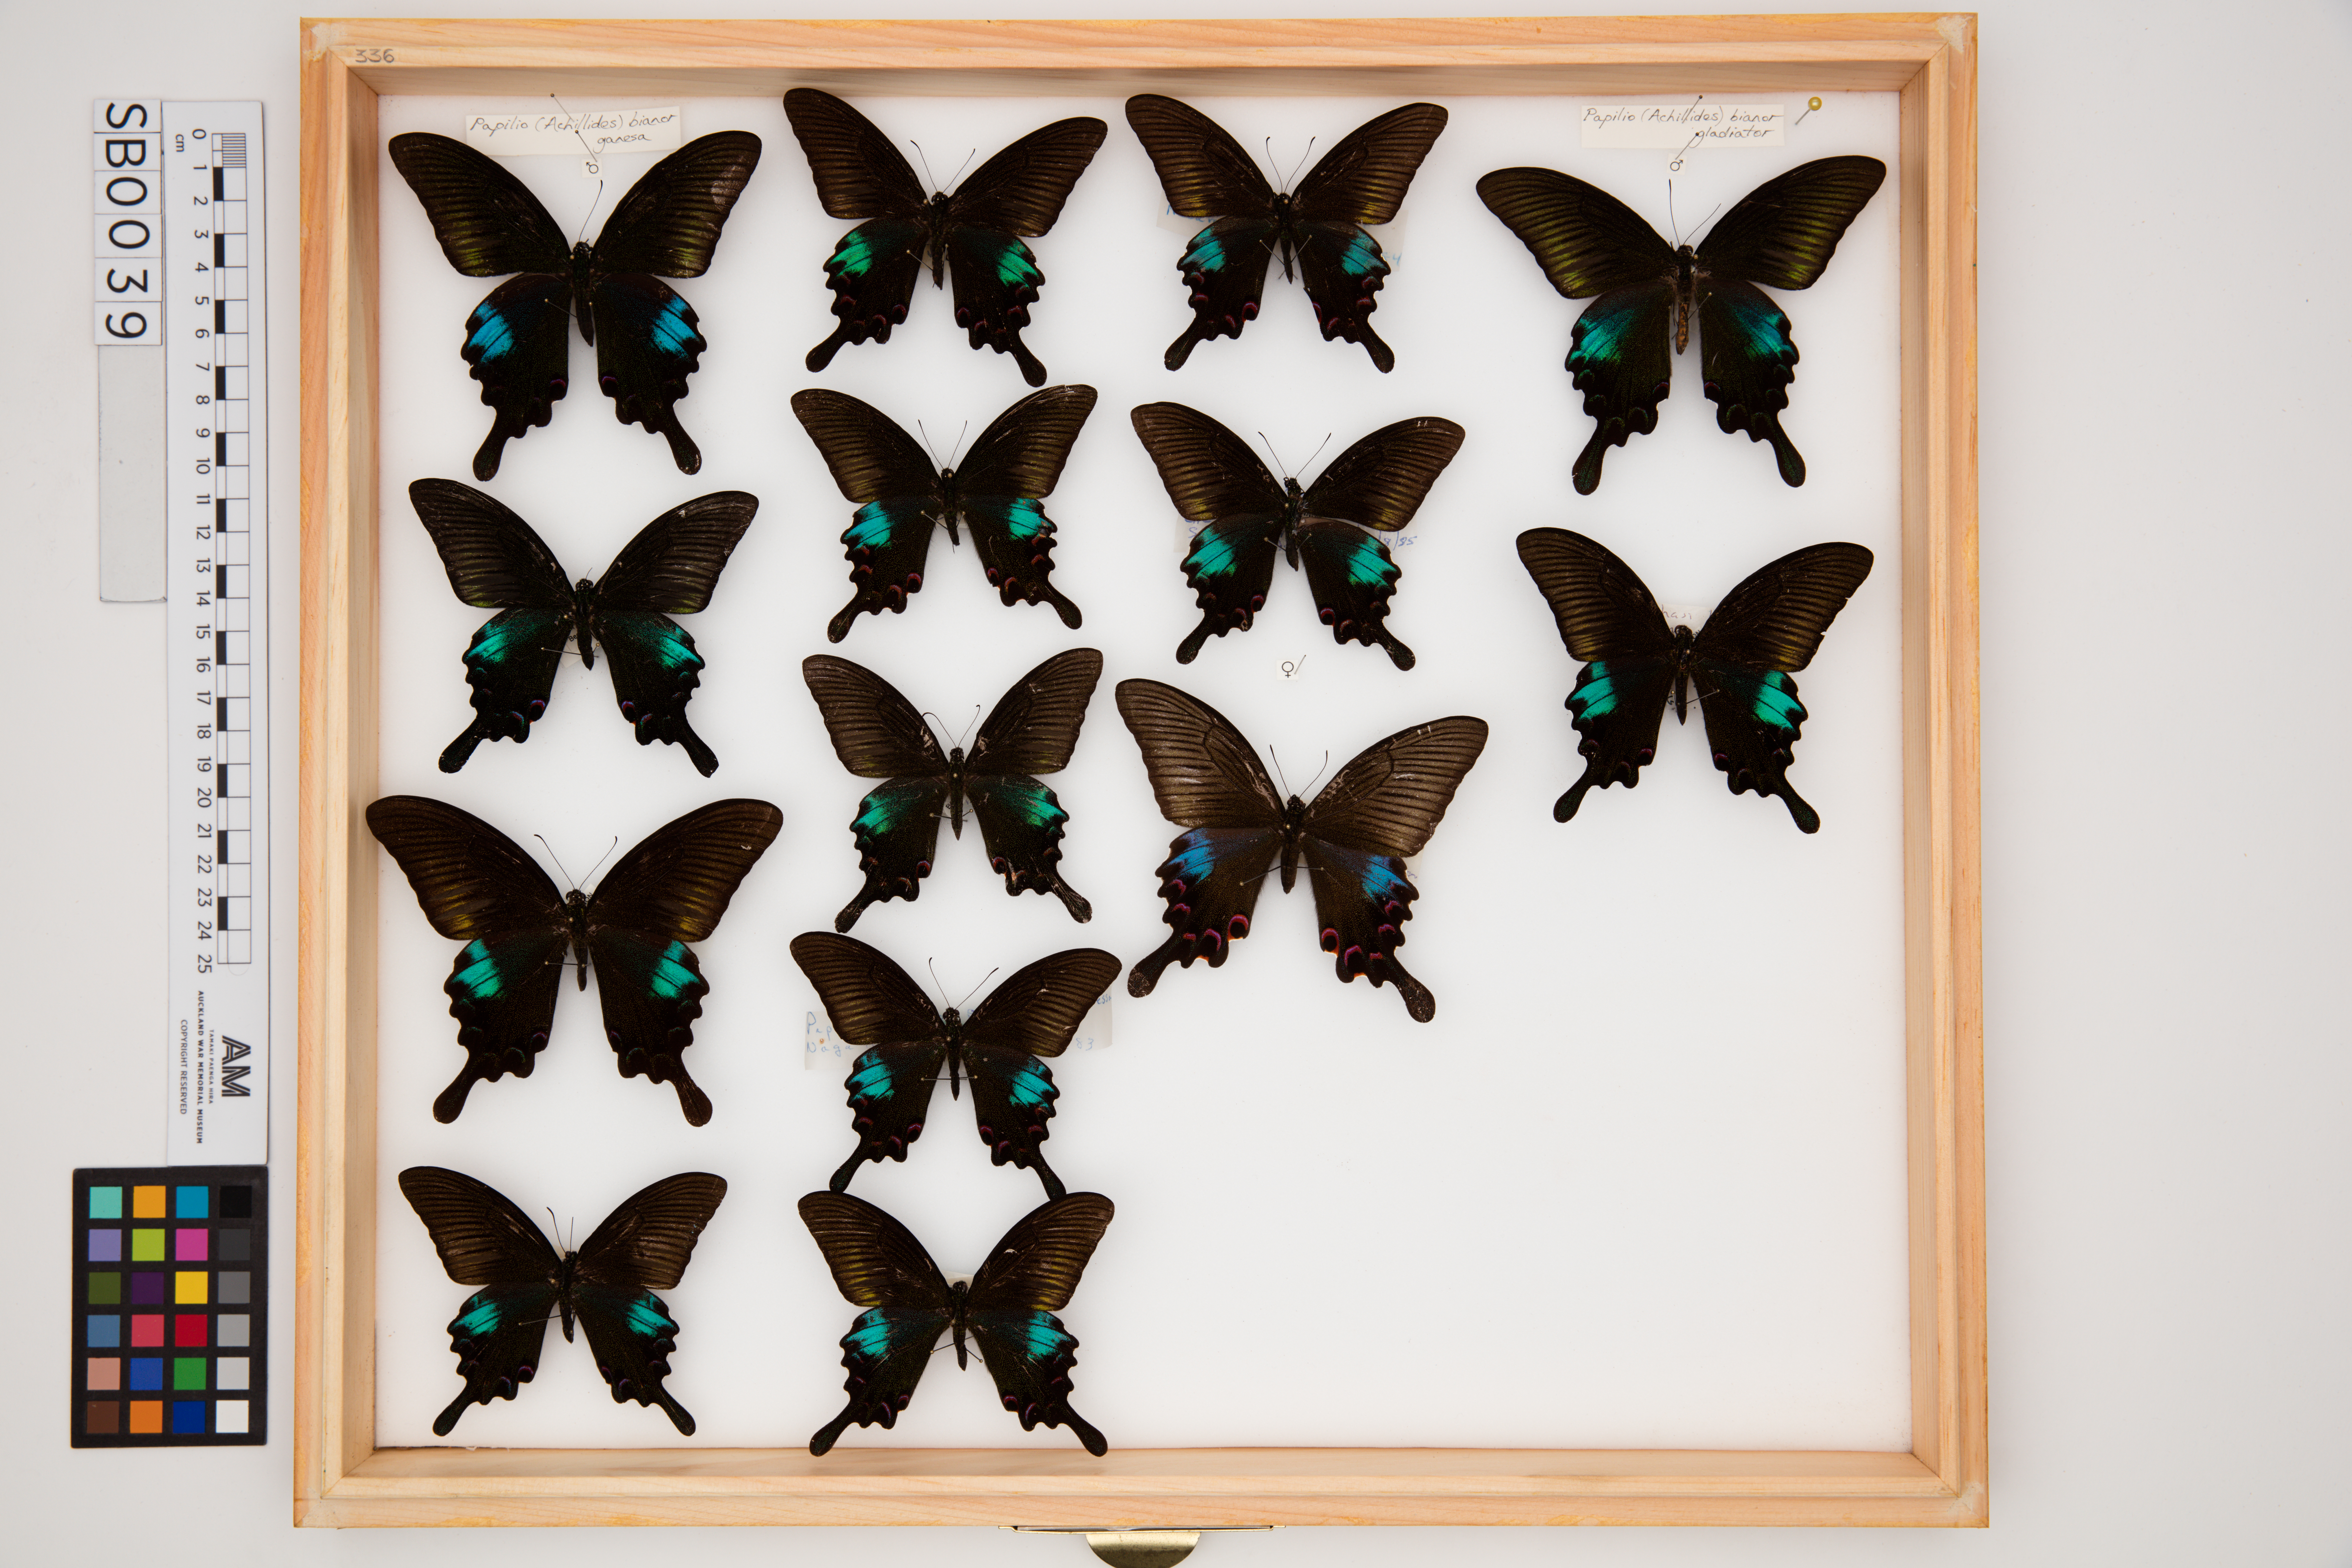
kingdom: Animalia
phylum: Arthropoda
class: Insecta
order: Lepidoptera
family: Papilionidae
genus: Papilio
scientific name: Papilio bianor
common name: Common peacock
